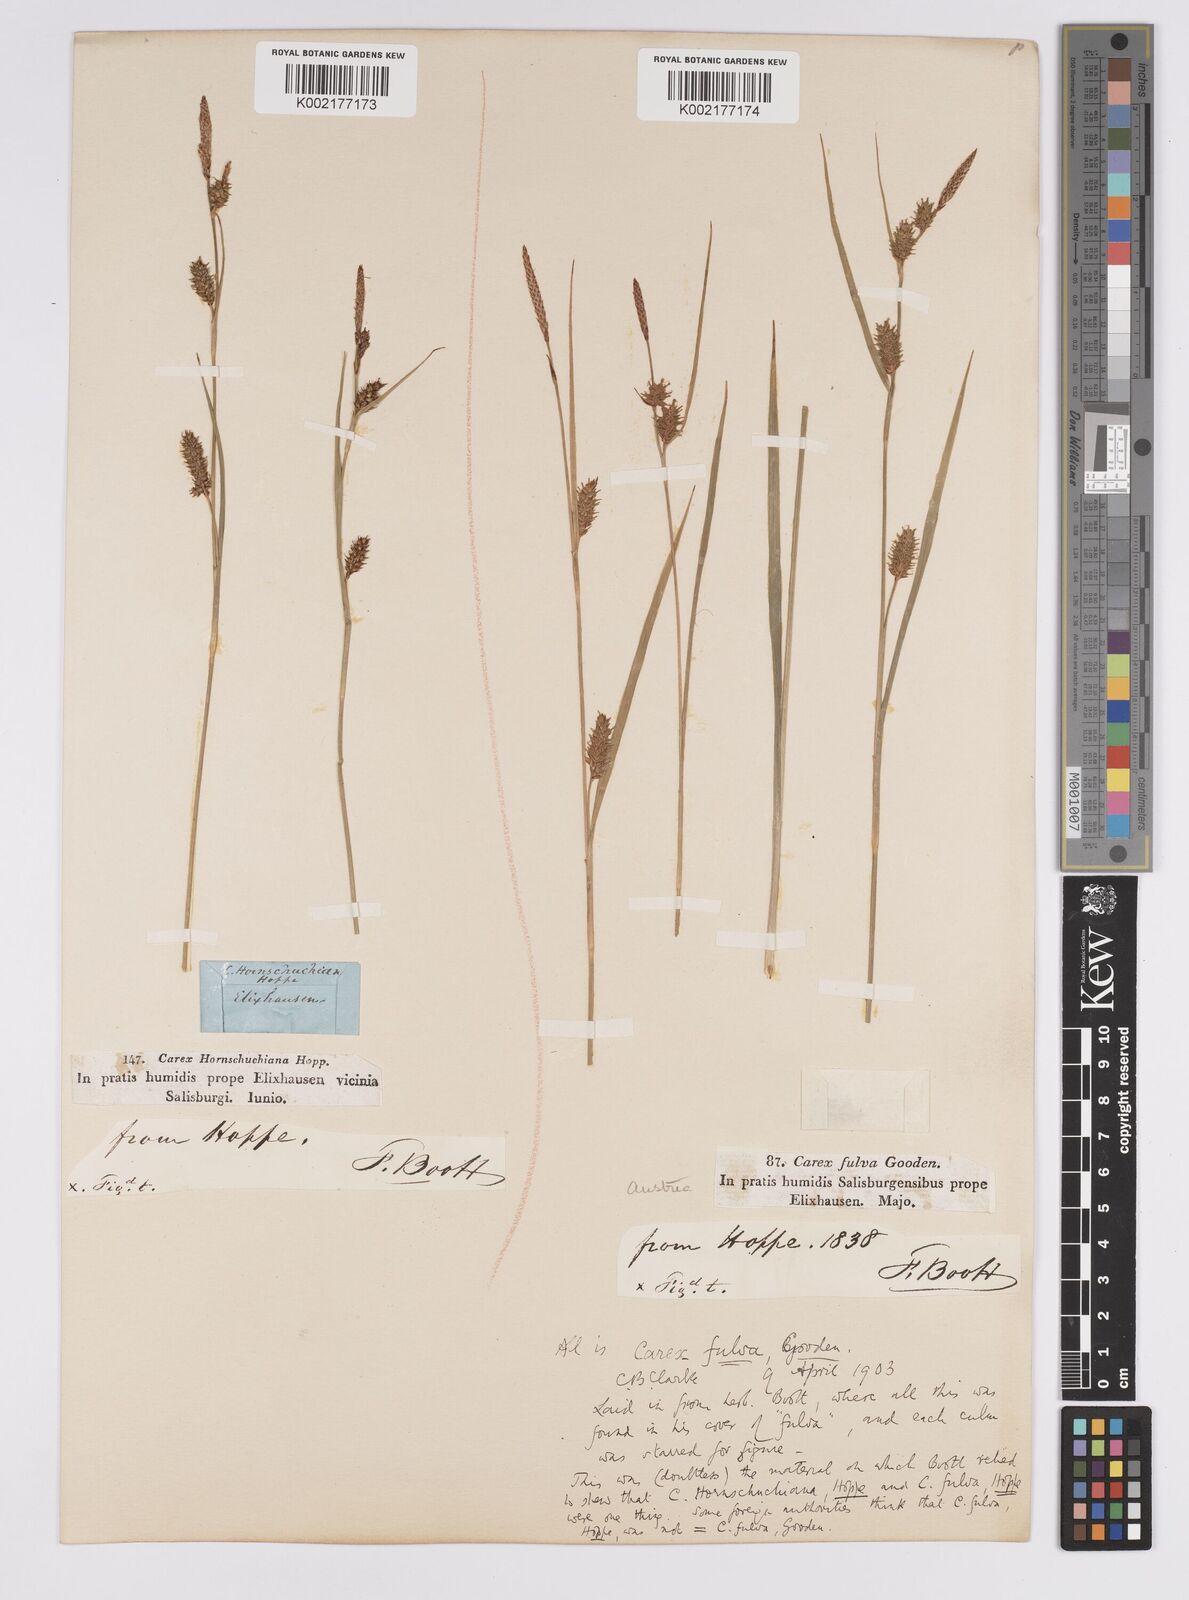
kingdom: Plantae
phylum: Tracheophyta
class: Liliopsida
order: Poales
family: Cyperaceae
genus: Carex
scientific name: Carex hostiana
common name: Tawny sedge
